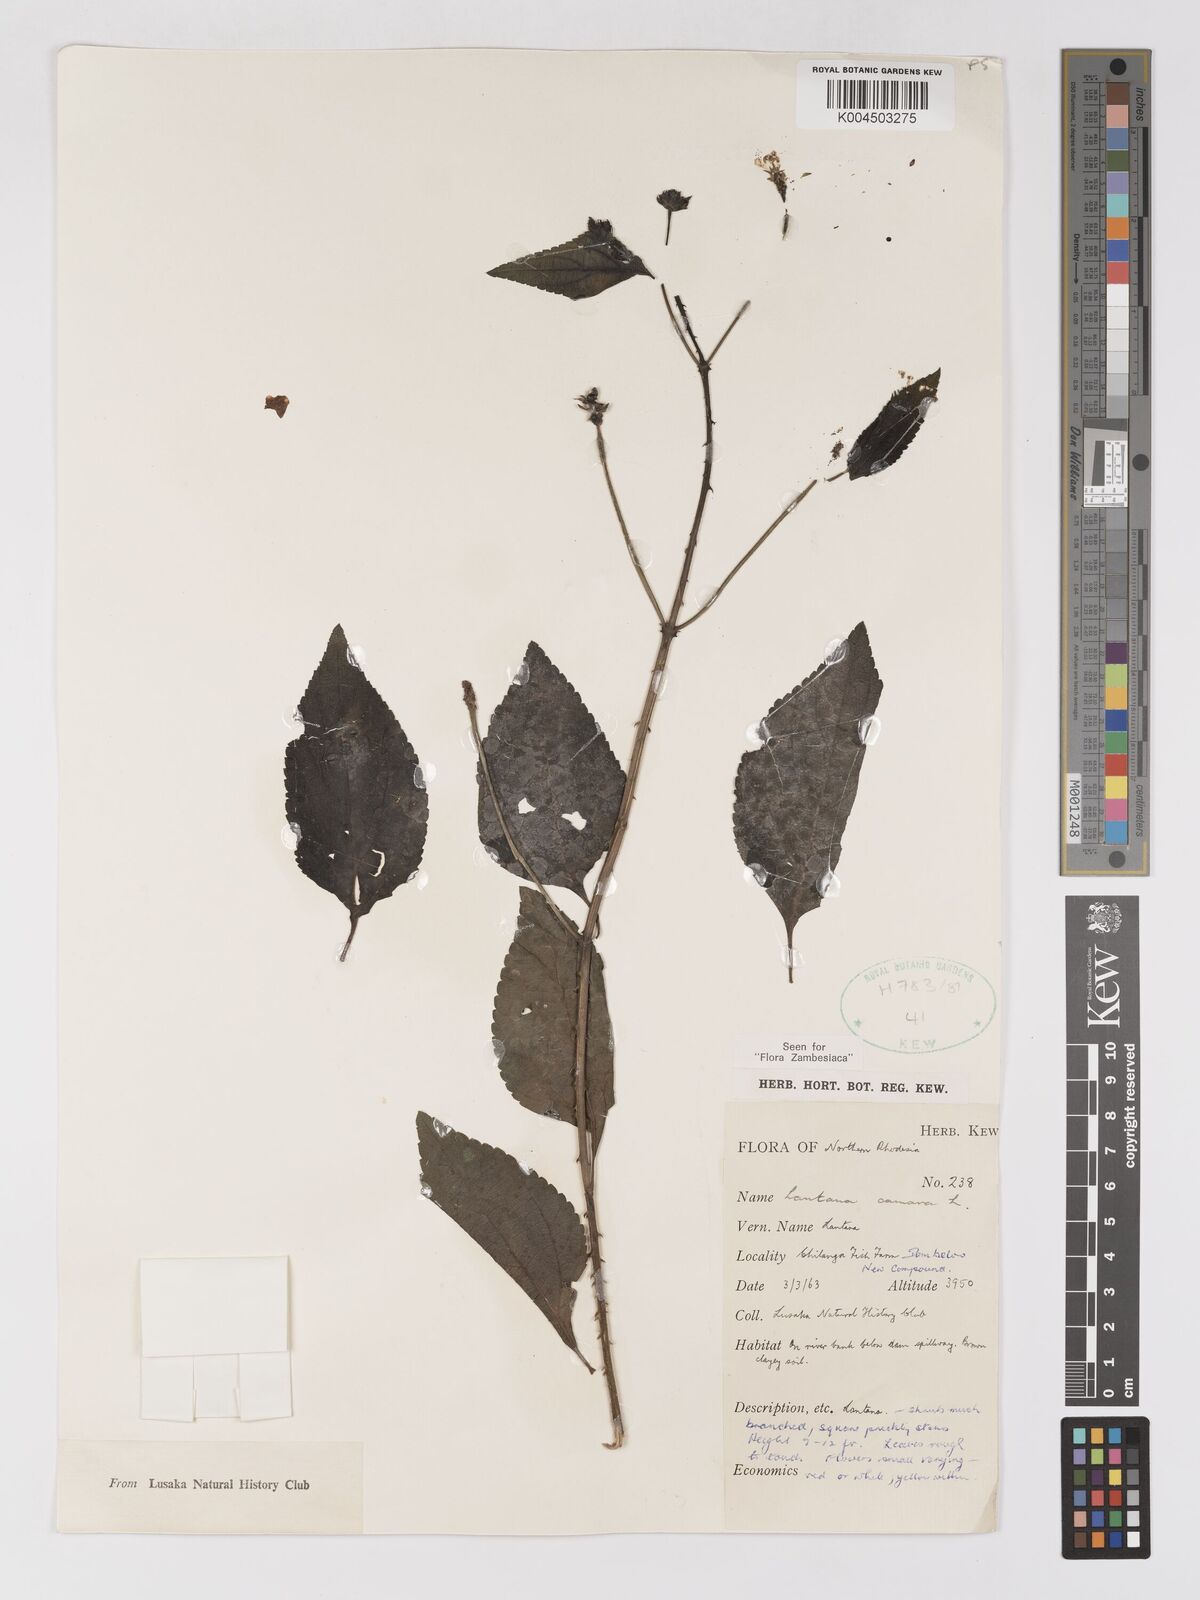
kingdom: Plantae
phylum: Tracheophyta
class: Magnoliopsida
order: Lamiales
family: Verbenaceae
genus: Lantana
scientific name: Lantana camara
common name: Lantana
